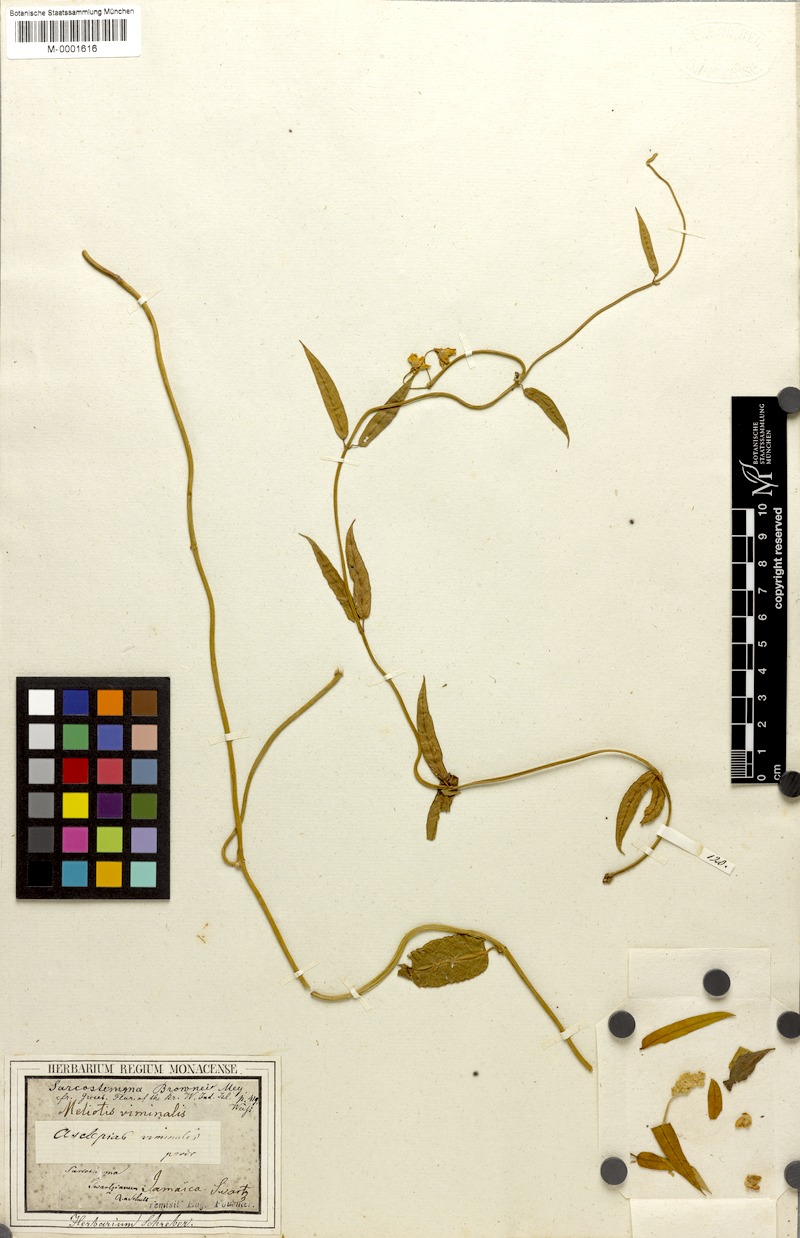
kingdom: Plantae
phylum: Tracheophyta
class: Magnoliopsida
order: Gentianales
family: Apocynaceae
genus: Funastrum
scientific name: Funastrum clausum
